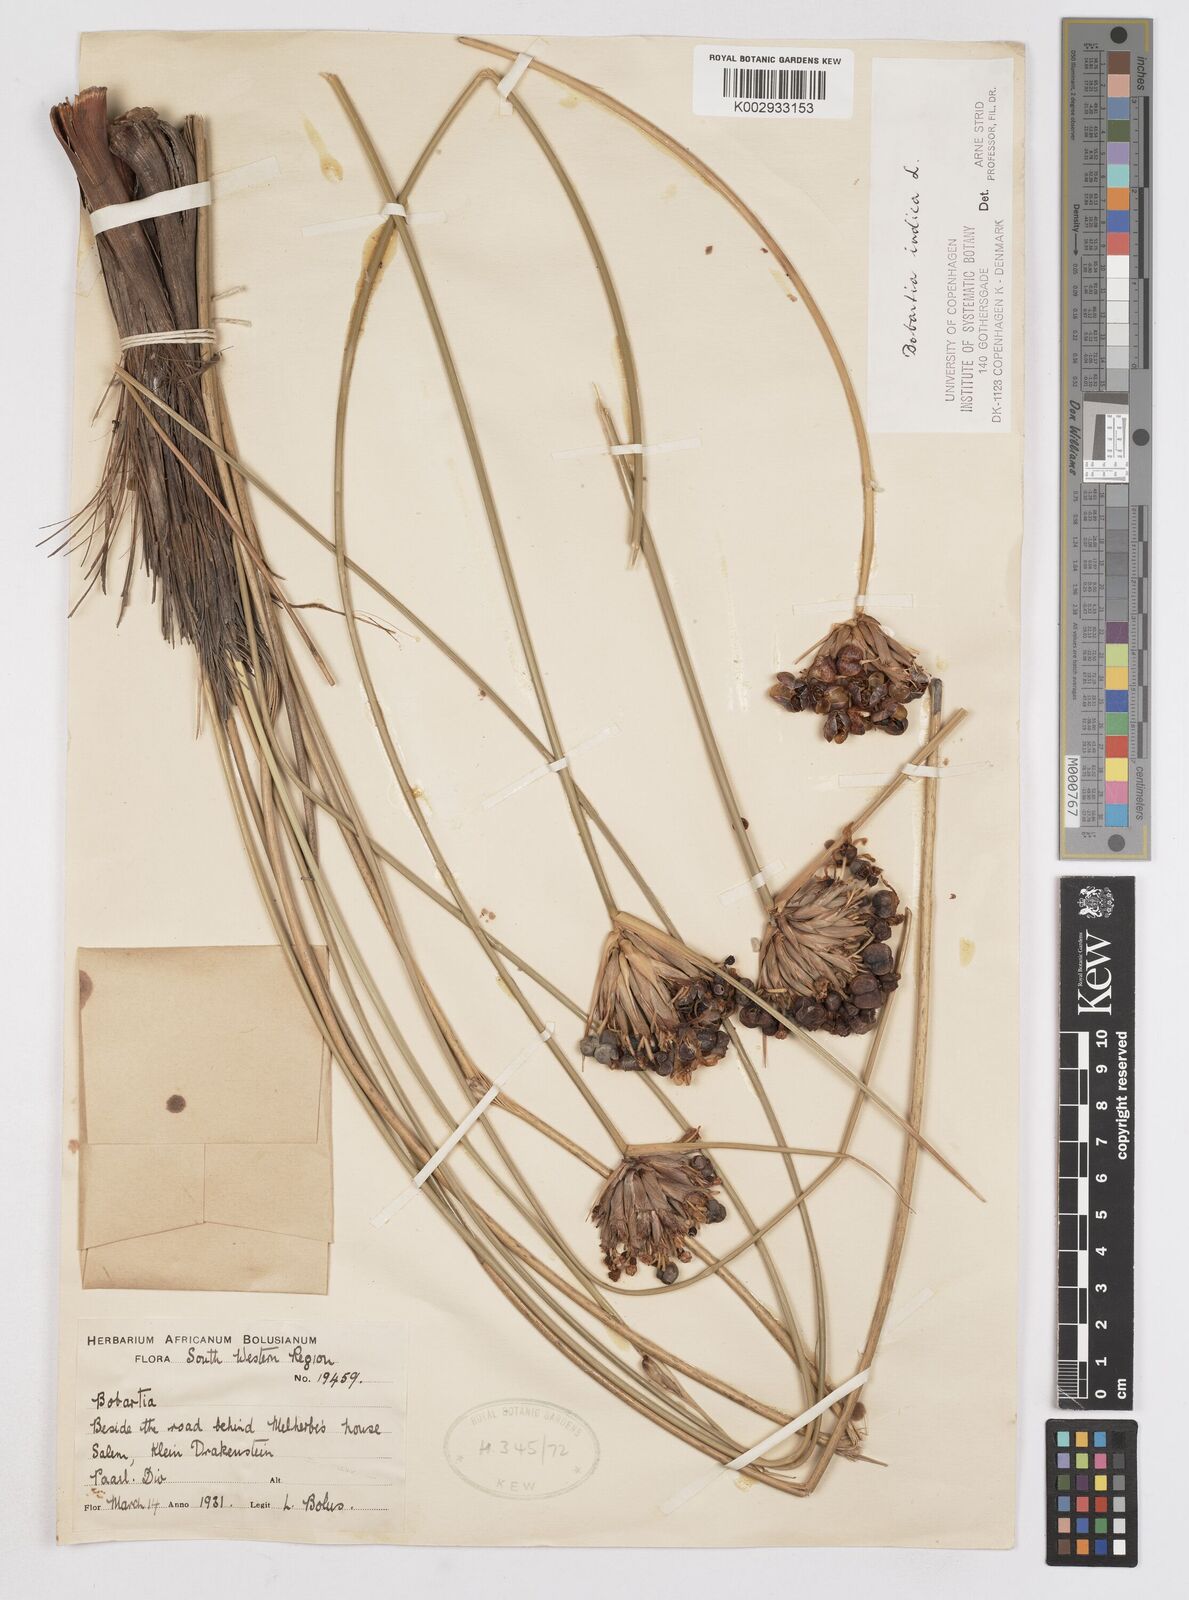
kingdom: Plantae
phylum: Tracheophyta
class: Liliopsida
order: Asparagales
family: Iridaceae
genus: Bobartia
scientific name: Bobartia indica
